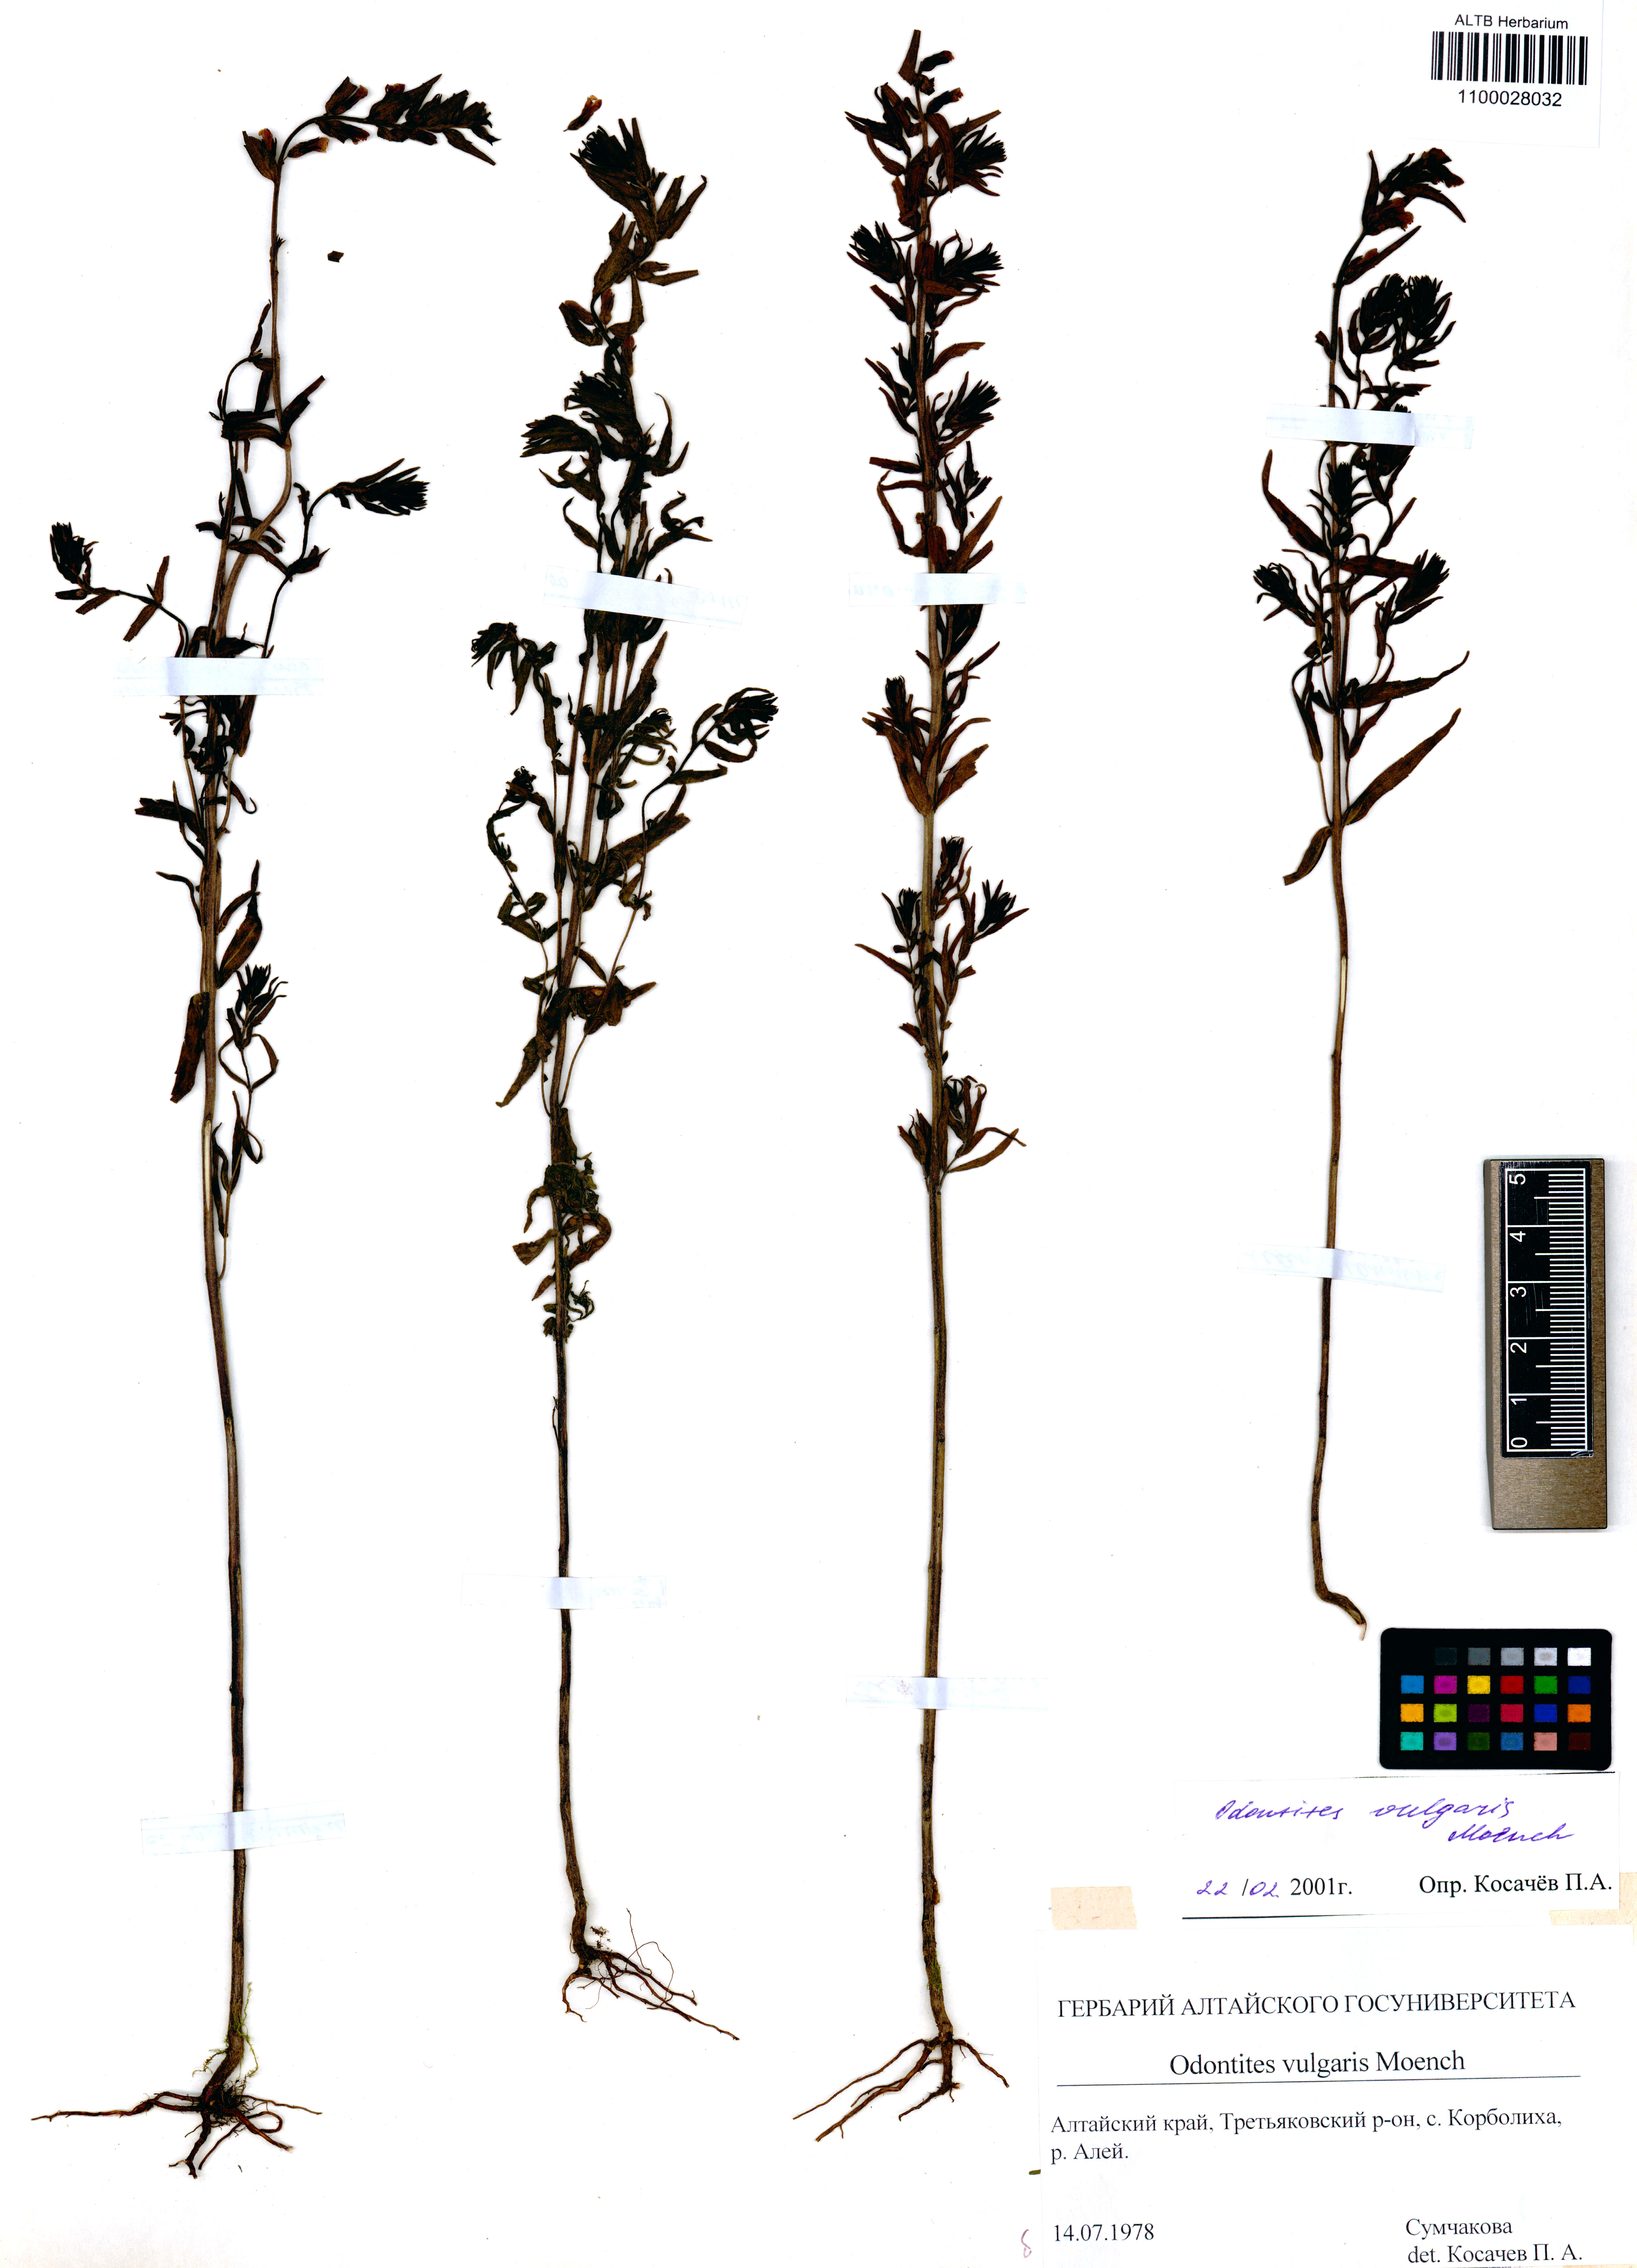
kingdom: Plantae
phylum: Tracheophyta
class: Magnoliopsida
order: Lamiales
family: Orobanchaceae
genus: Odontites
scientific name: Odontites vulgaris
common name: Broomrape
